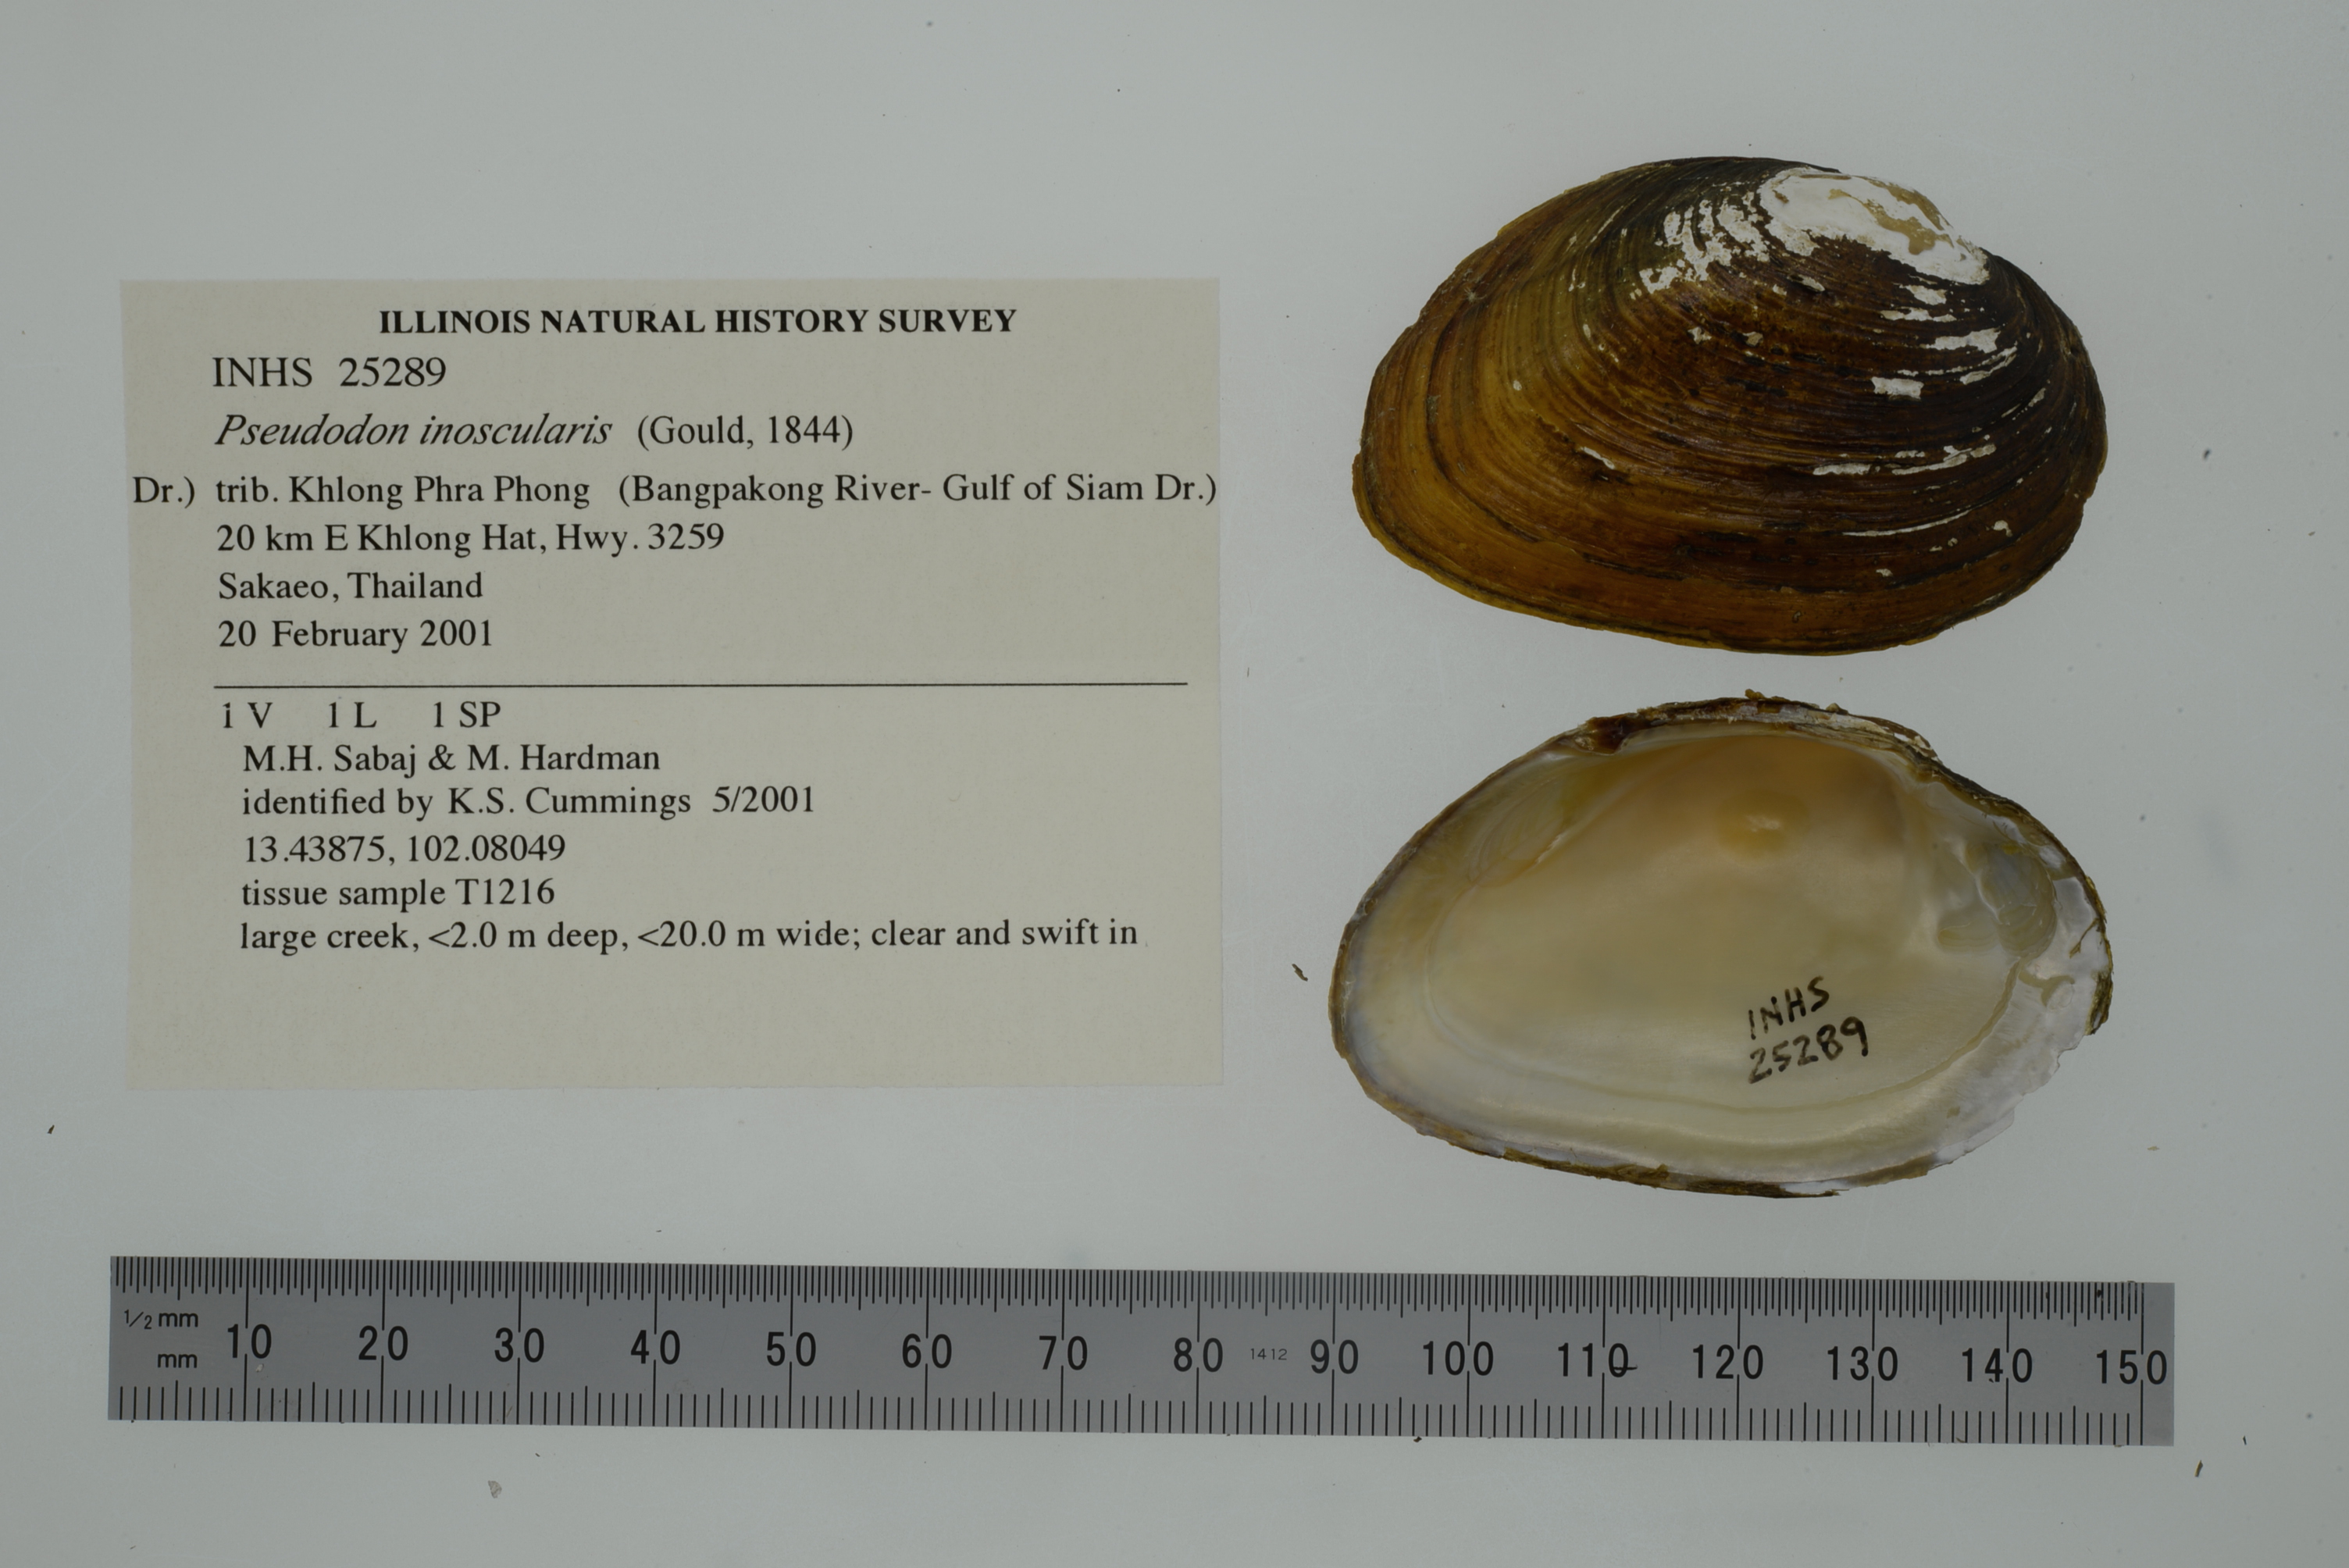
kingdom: Animalia
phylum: Mollusca
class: Bivalvia
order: Unionida
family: Unionidae
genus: Pseudodon
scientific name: Pseudodon inoscularis
